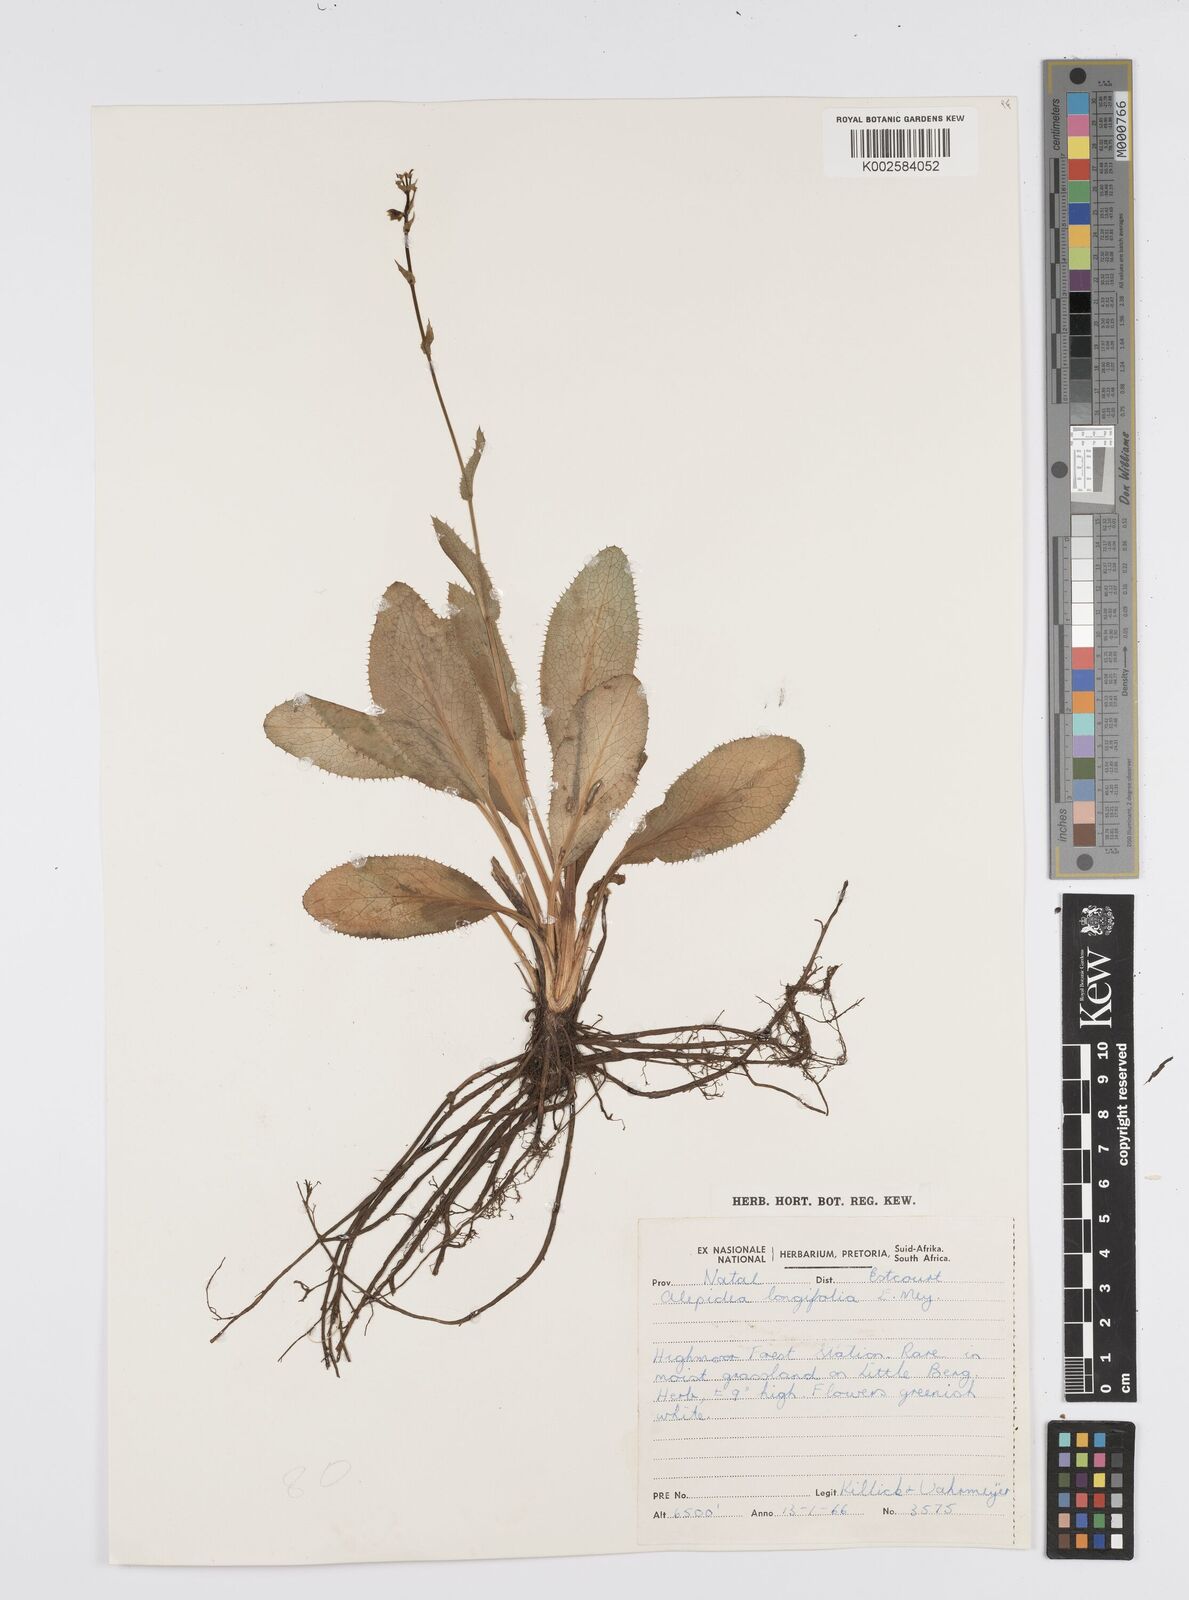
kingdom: Plantae
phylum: Tracheophyta
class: Magnoliopsida
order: Apiales
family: Apiaceae
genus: Alepidea
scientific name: Alepidea woodii
